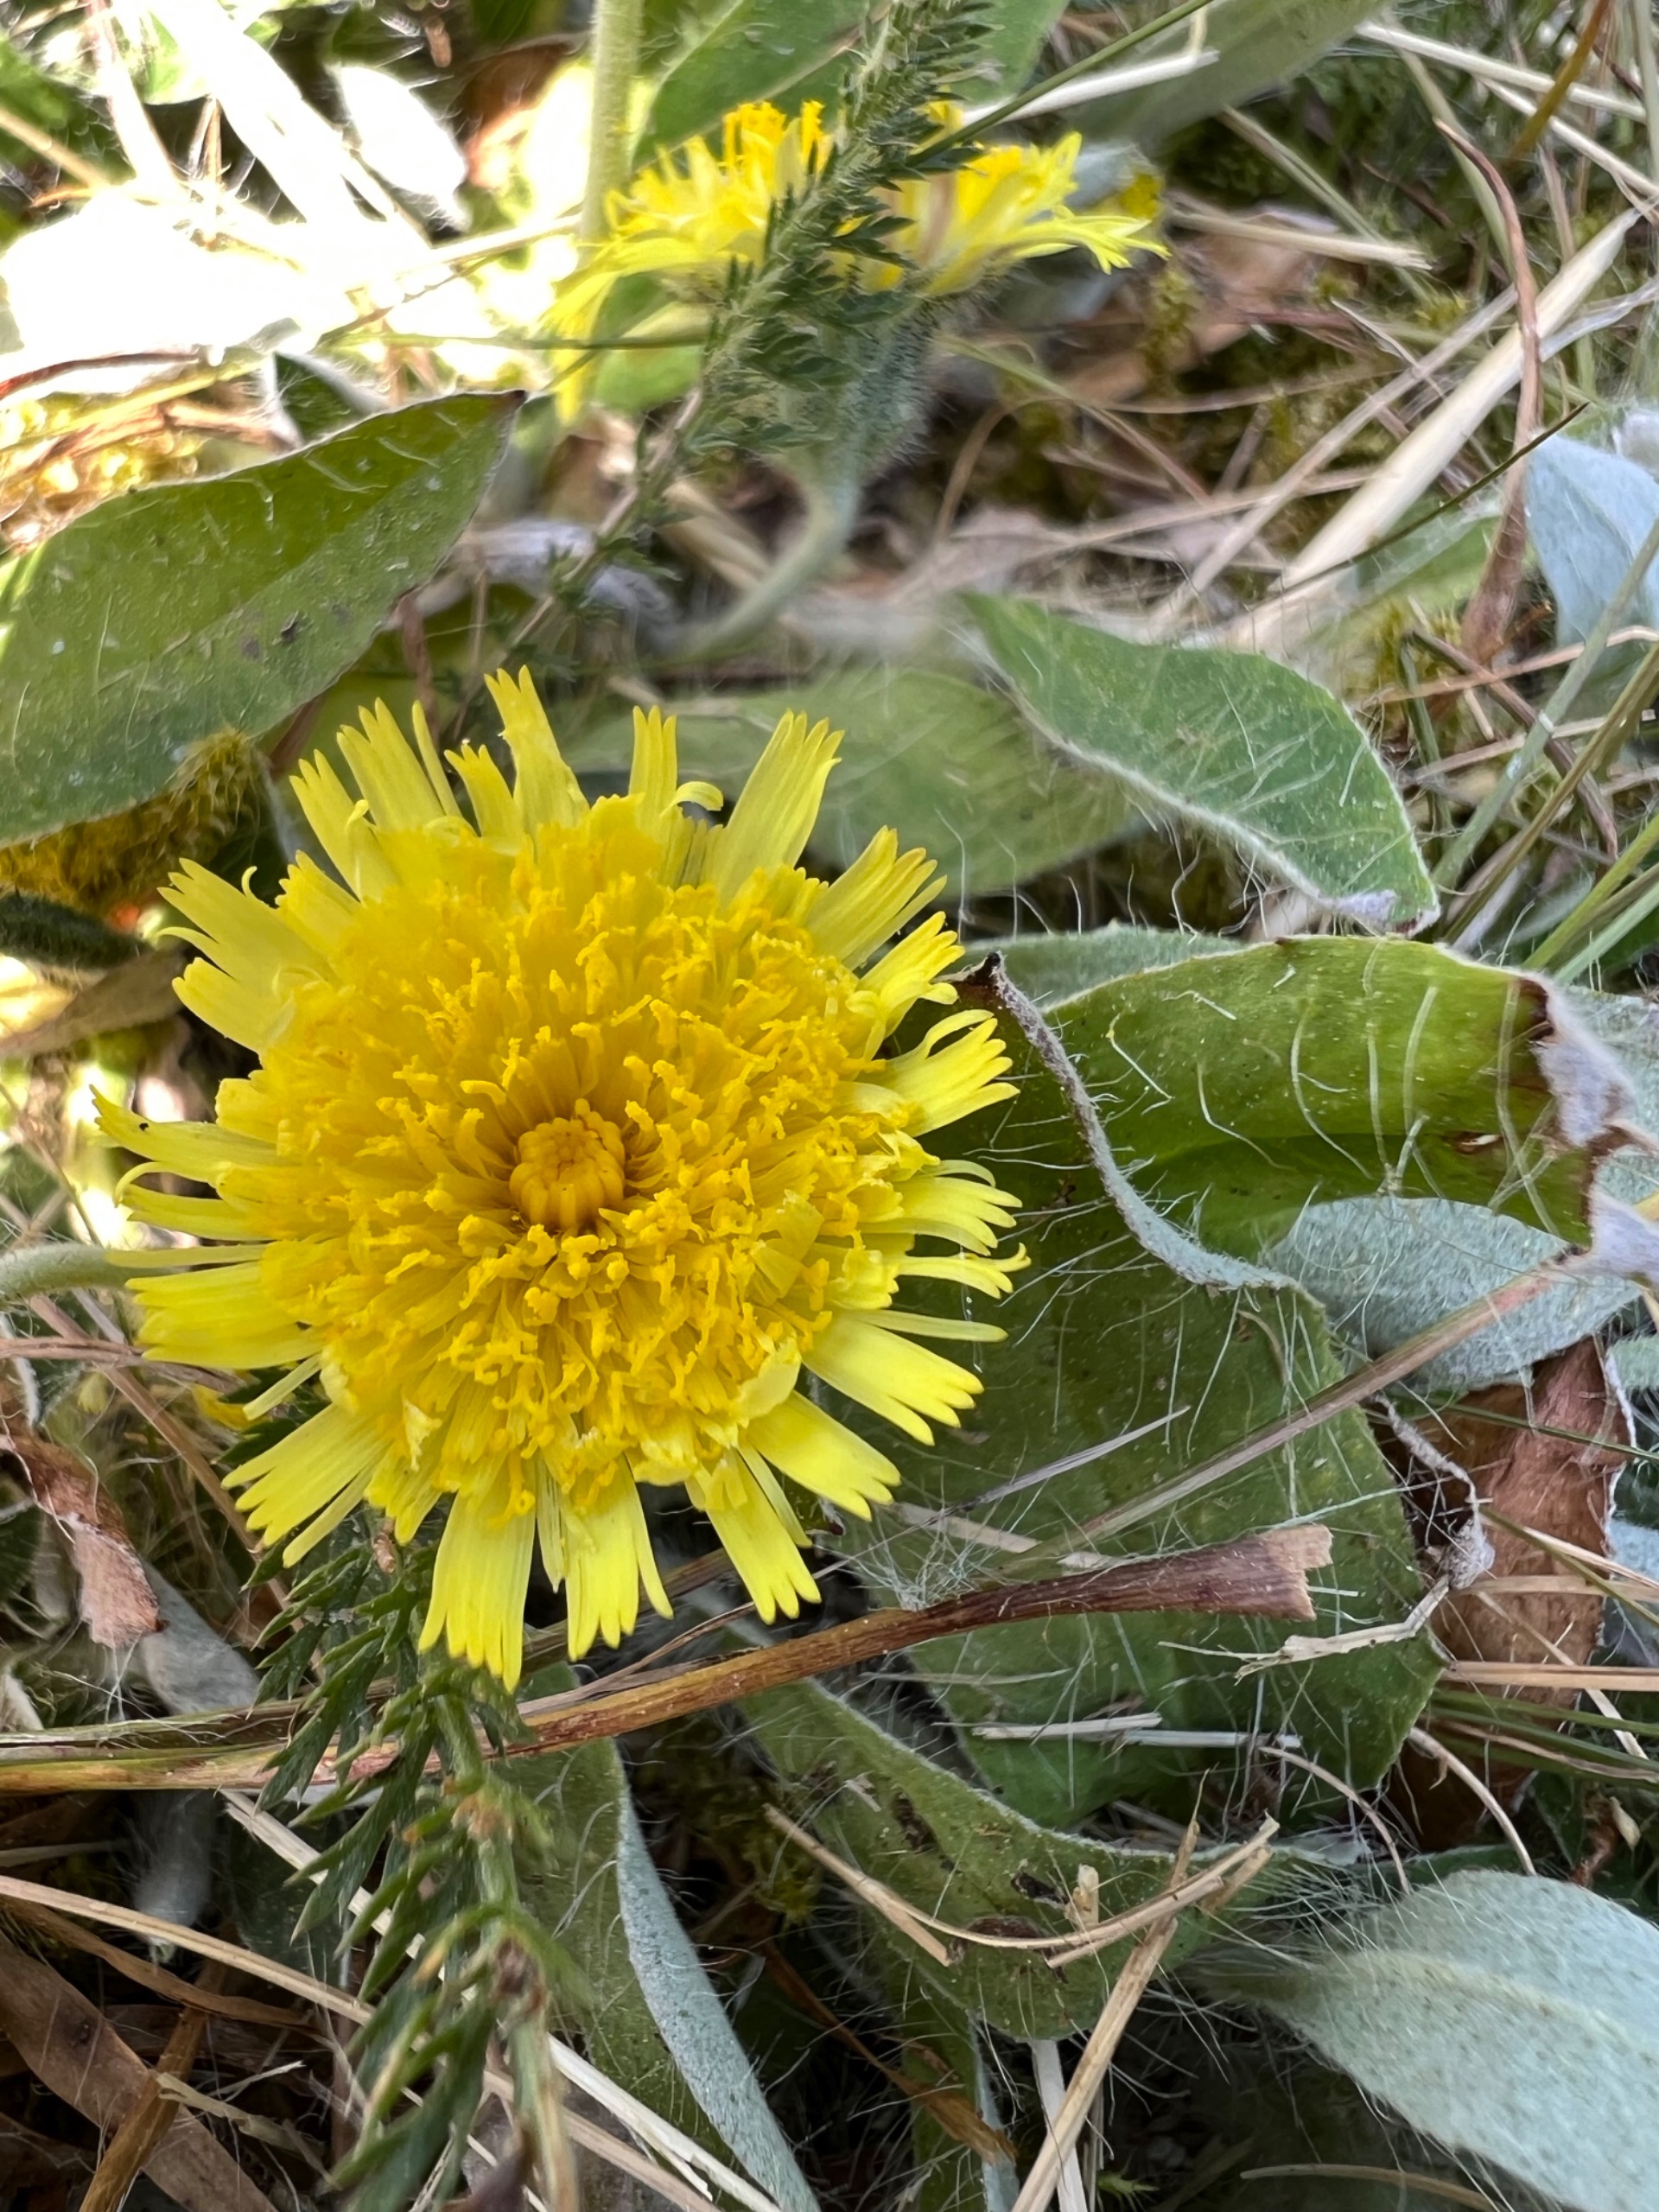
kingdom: Plantae
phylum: Tracheophyta
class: Magnoliopsida
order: Asterales
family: Asteraceae
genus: Pilosella
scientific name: Pilosella officinarum
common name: Håret høgeurt
